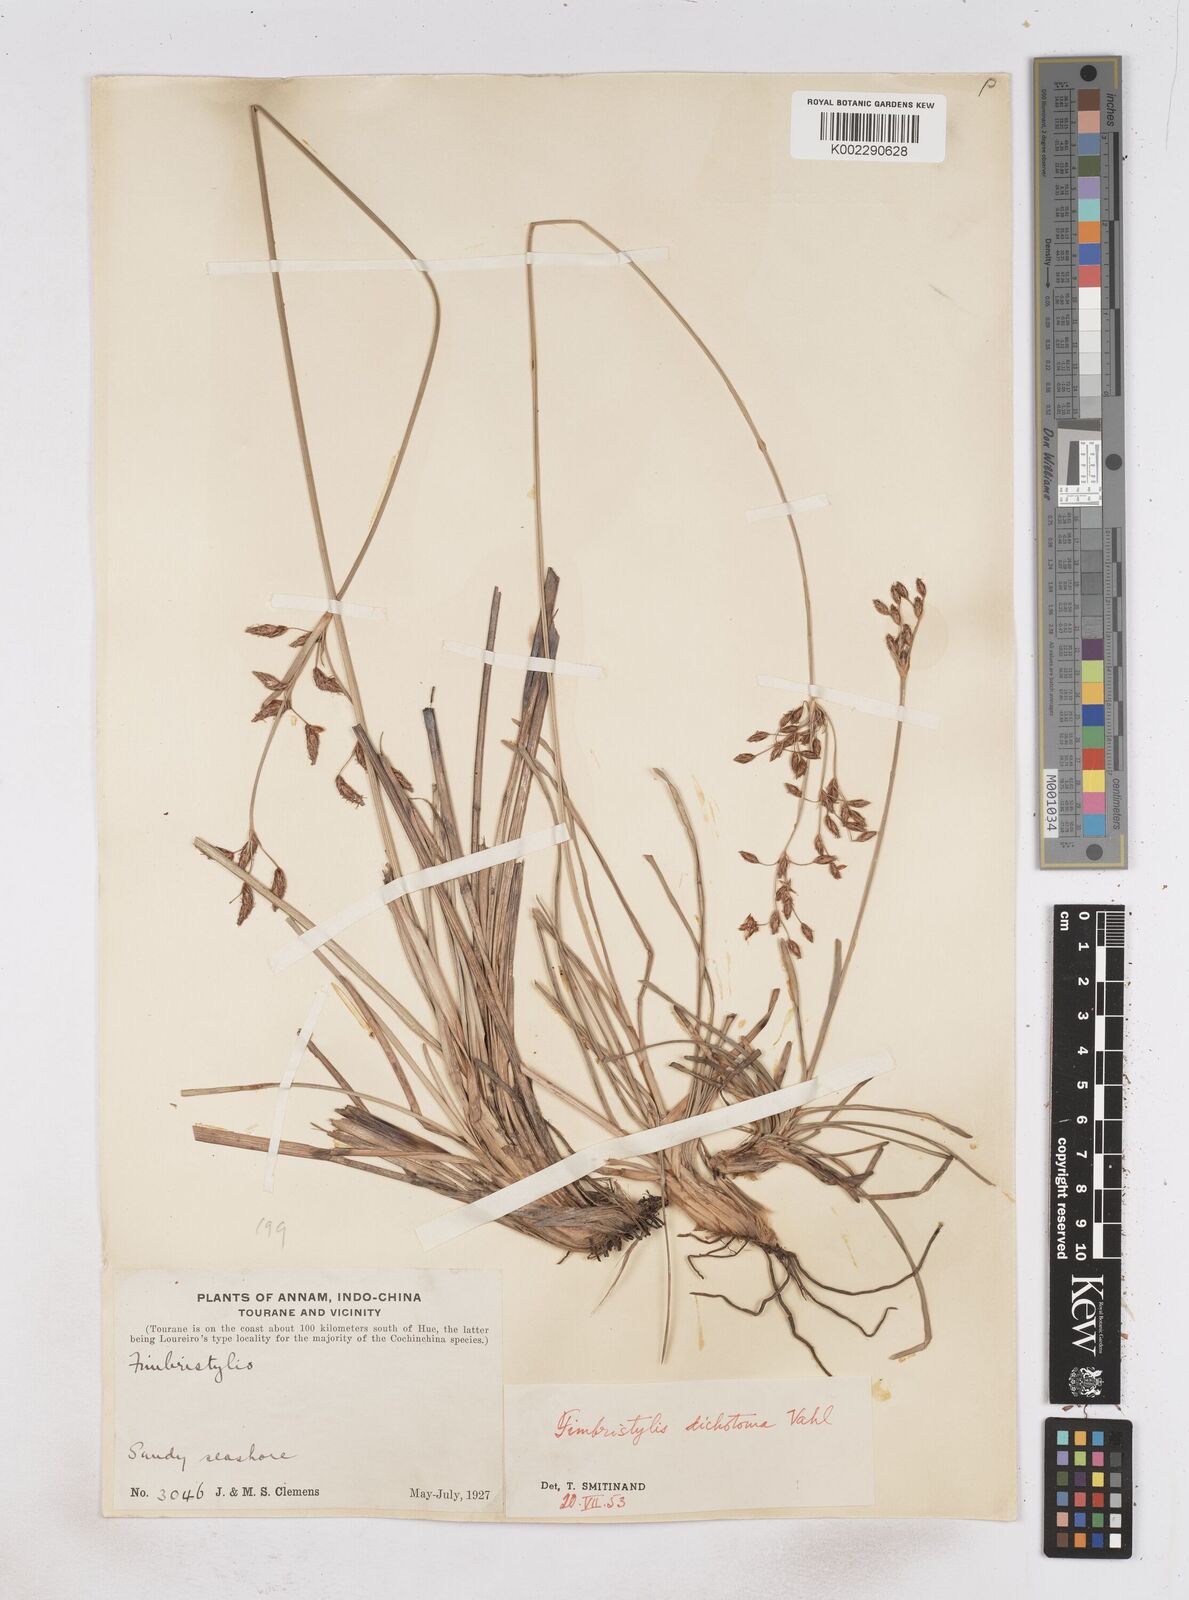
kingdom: Plantae
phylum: Tracheophyta
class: Liliopsida
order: Poales
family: Cyperaceae
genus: Fimbristylis
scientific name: Fimbristylis dichotoma
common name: Forked fimbry
